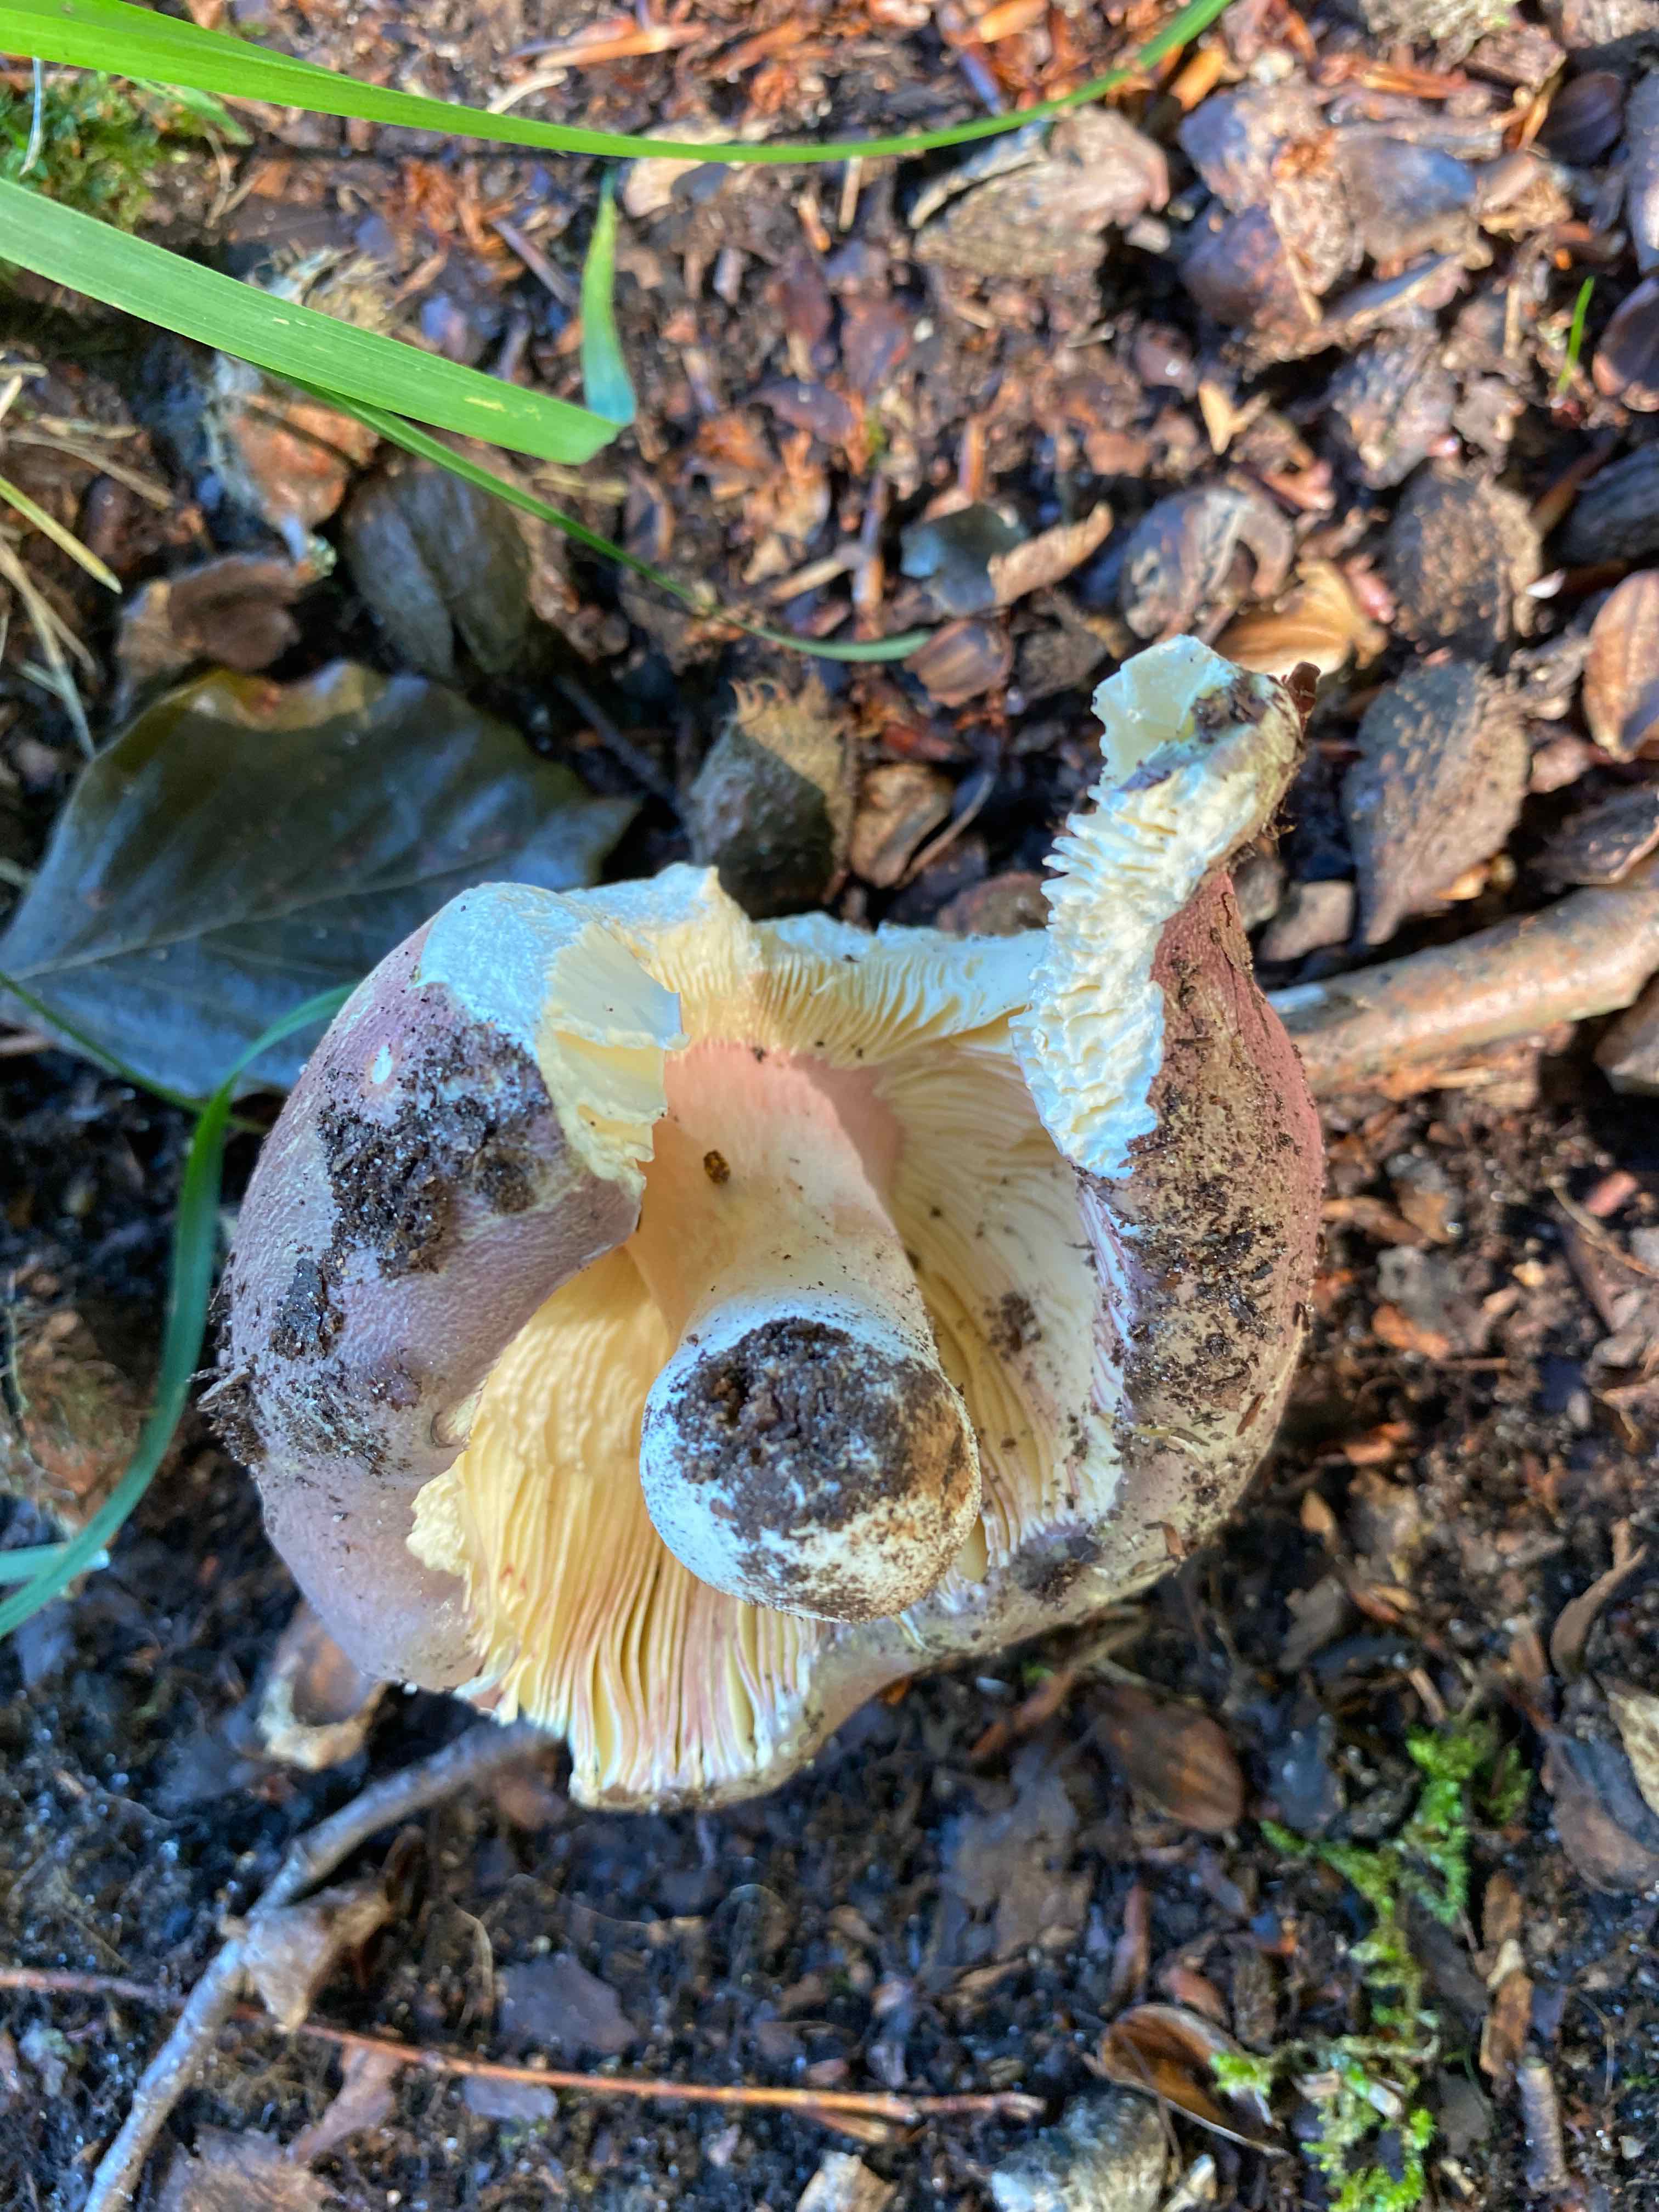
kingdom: Fungi
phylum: Basidiomycota
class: Agaricomycetes
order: Russulales
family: Russulaceae
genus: Russula
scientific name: Russula olivacea
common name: stor skørhat
